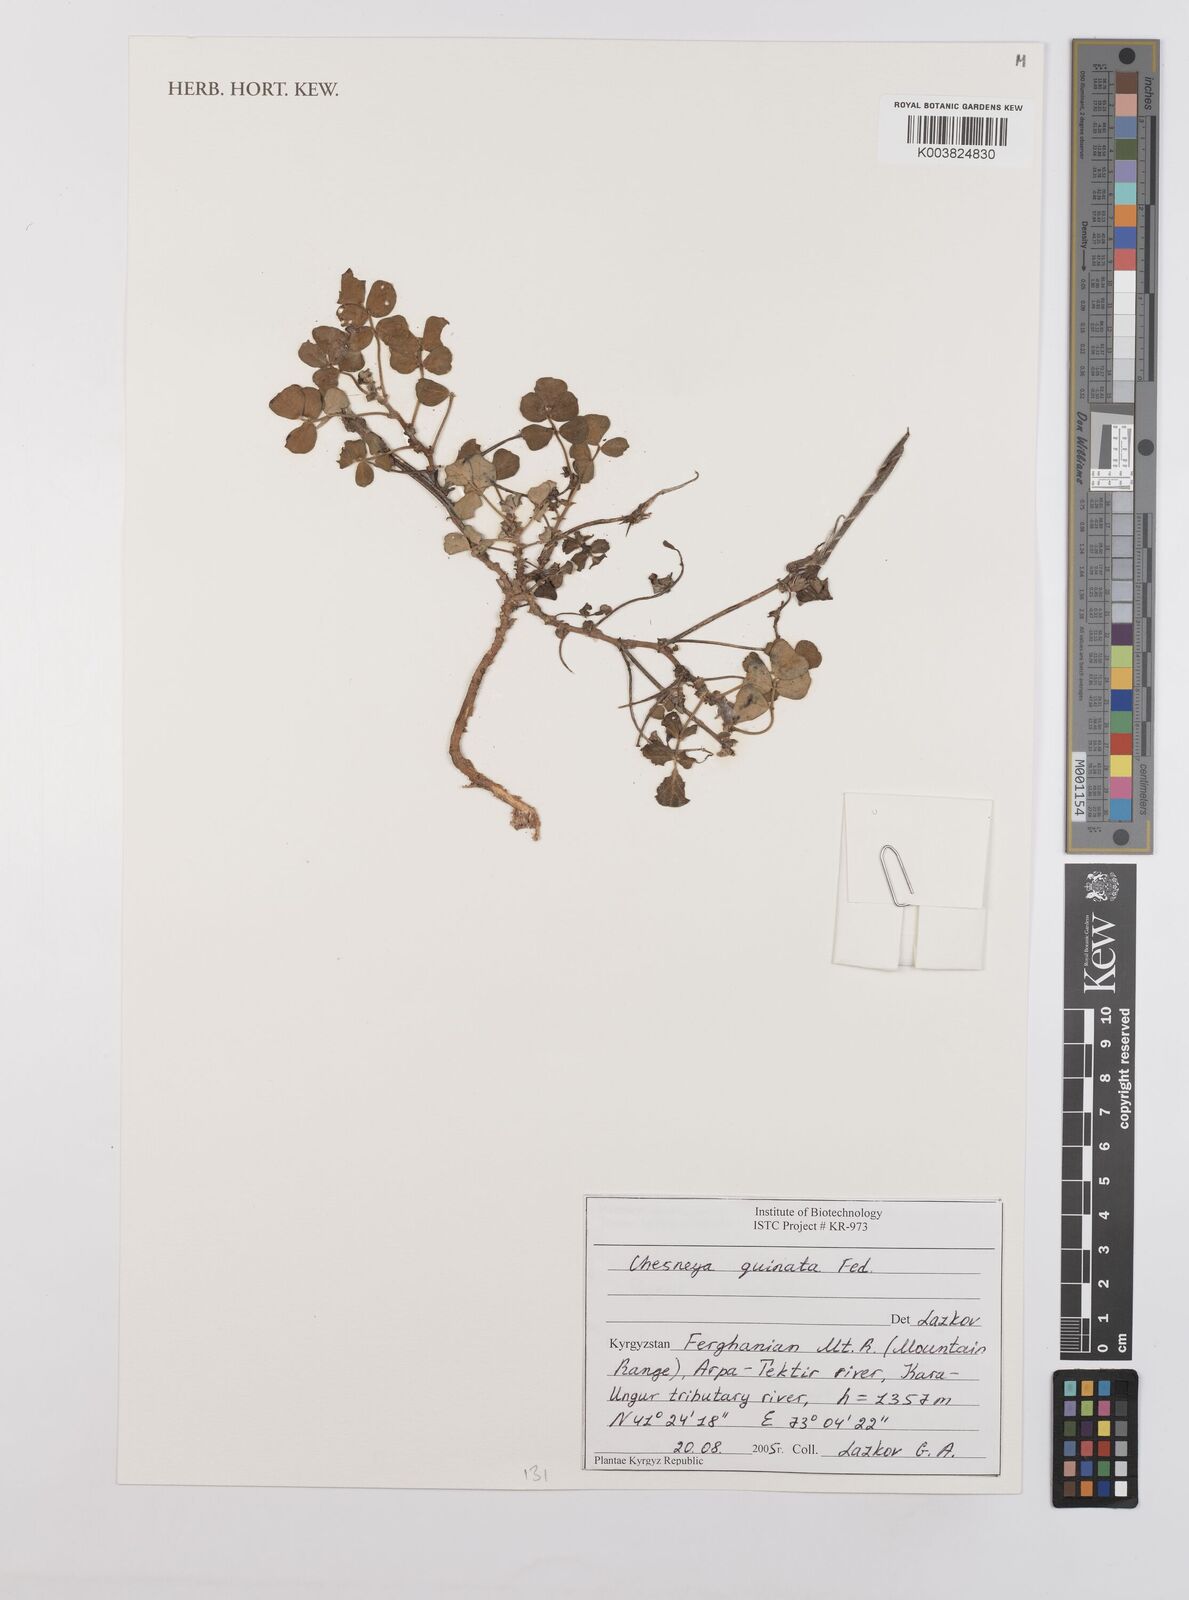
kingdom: Plantae
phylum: Tracheophyta
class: Magnoliopsida
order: Fabales
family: Fabaceae
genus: Chesneya
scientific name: Chesneya quinata
